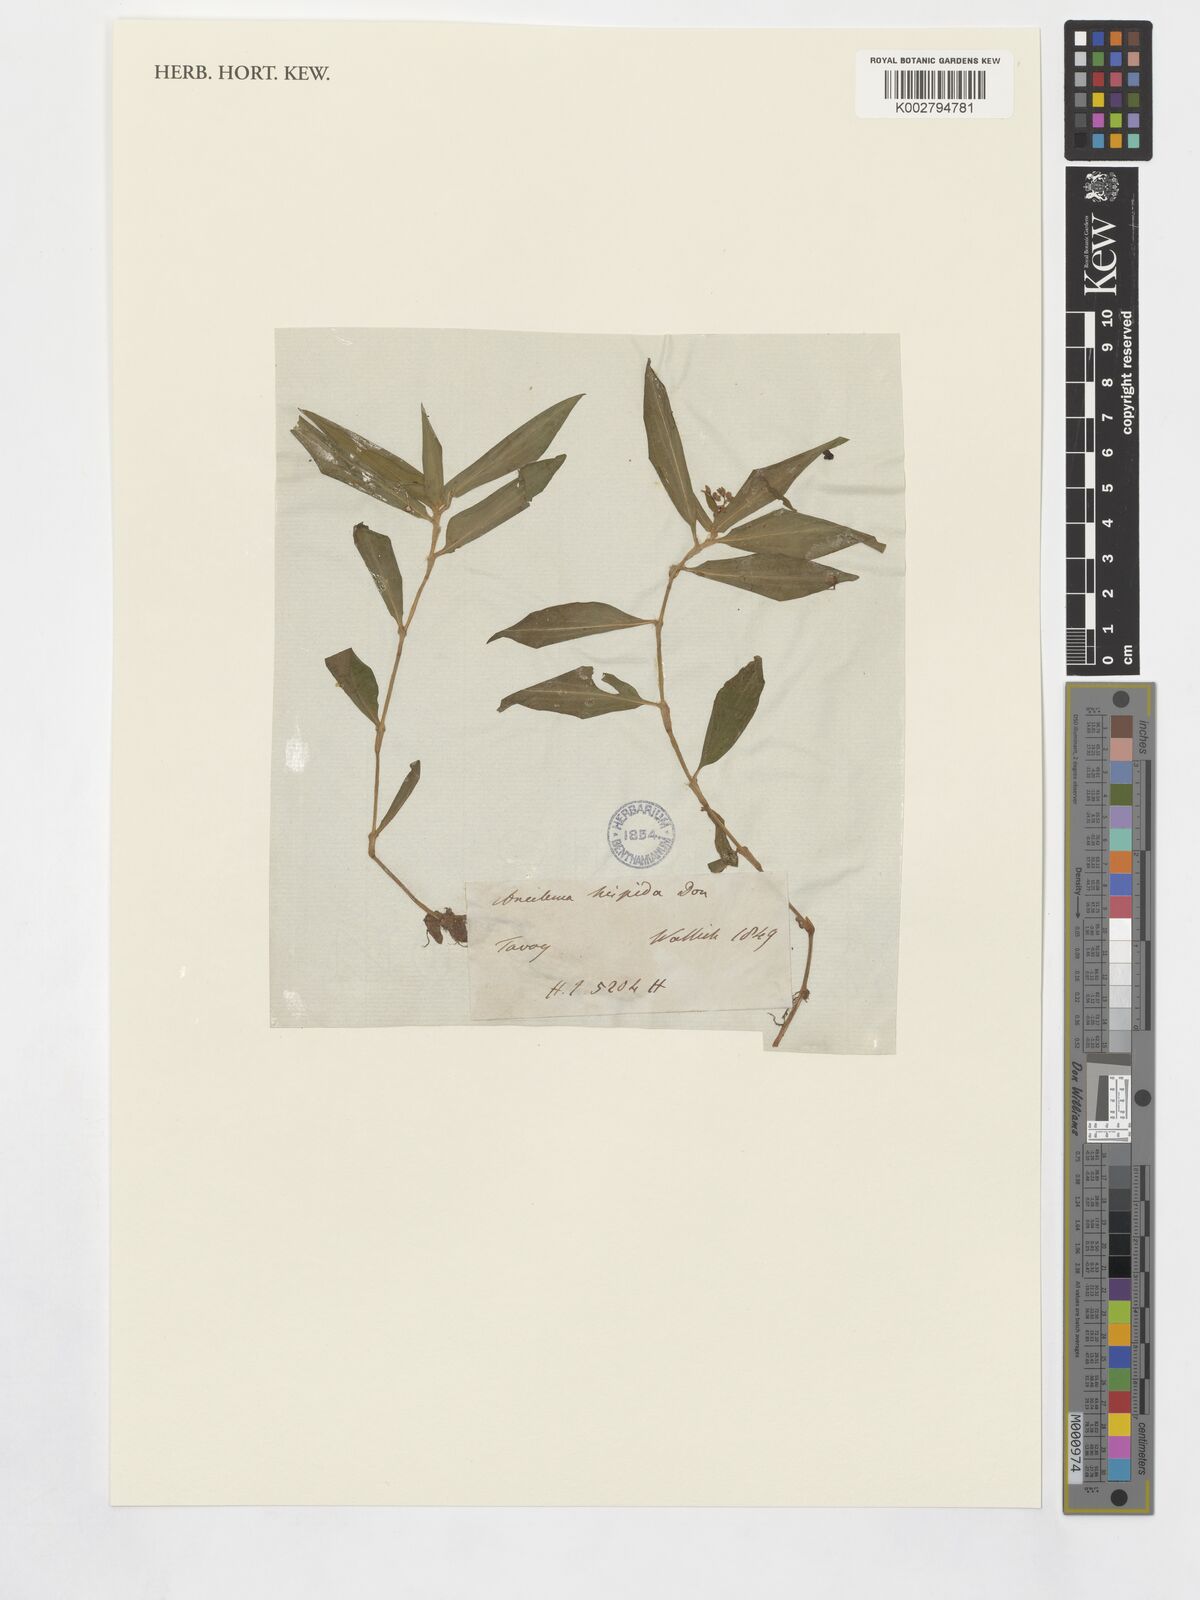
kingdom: Plantae
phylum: Tracheophyta
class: Liliopsida
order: Commelinales
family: Commelinaceae
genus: Floscopa
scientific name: Floscopa scandens
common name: Climbing flower cup
